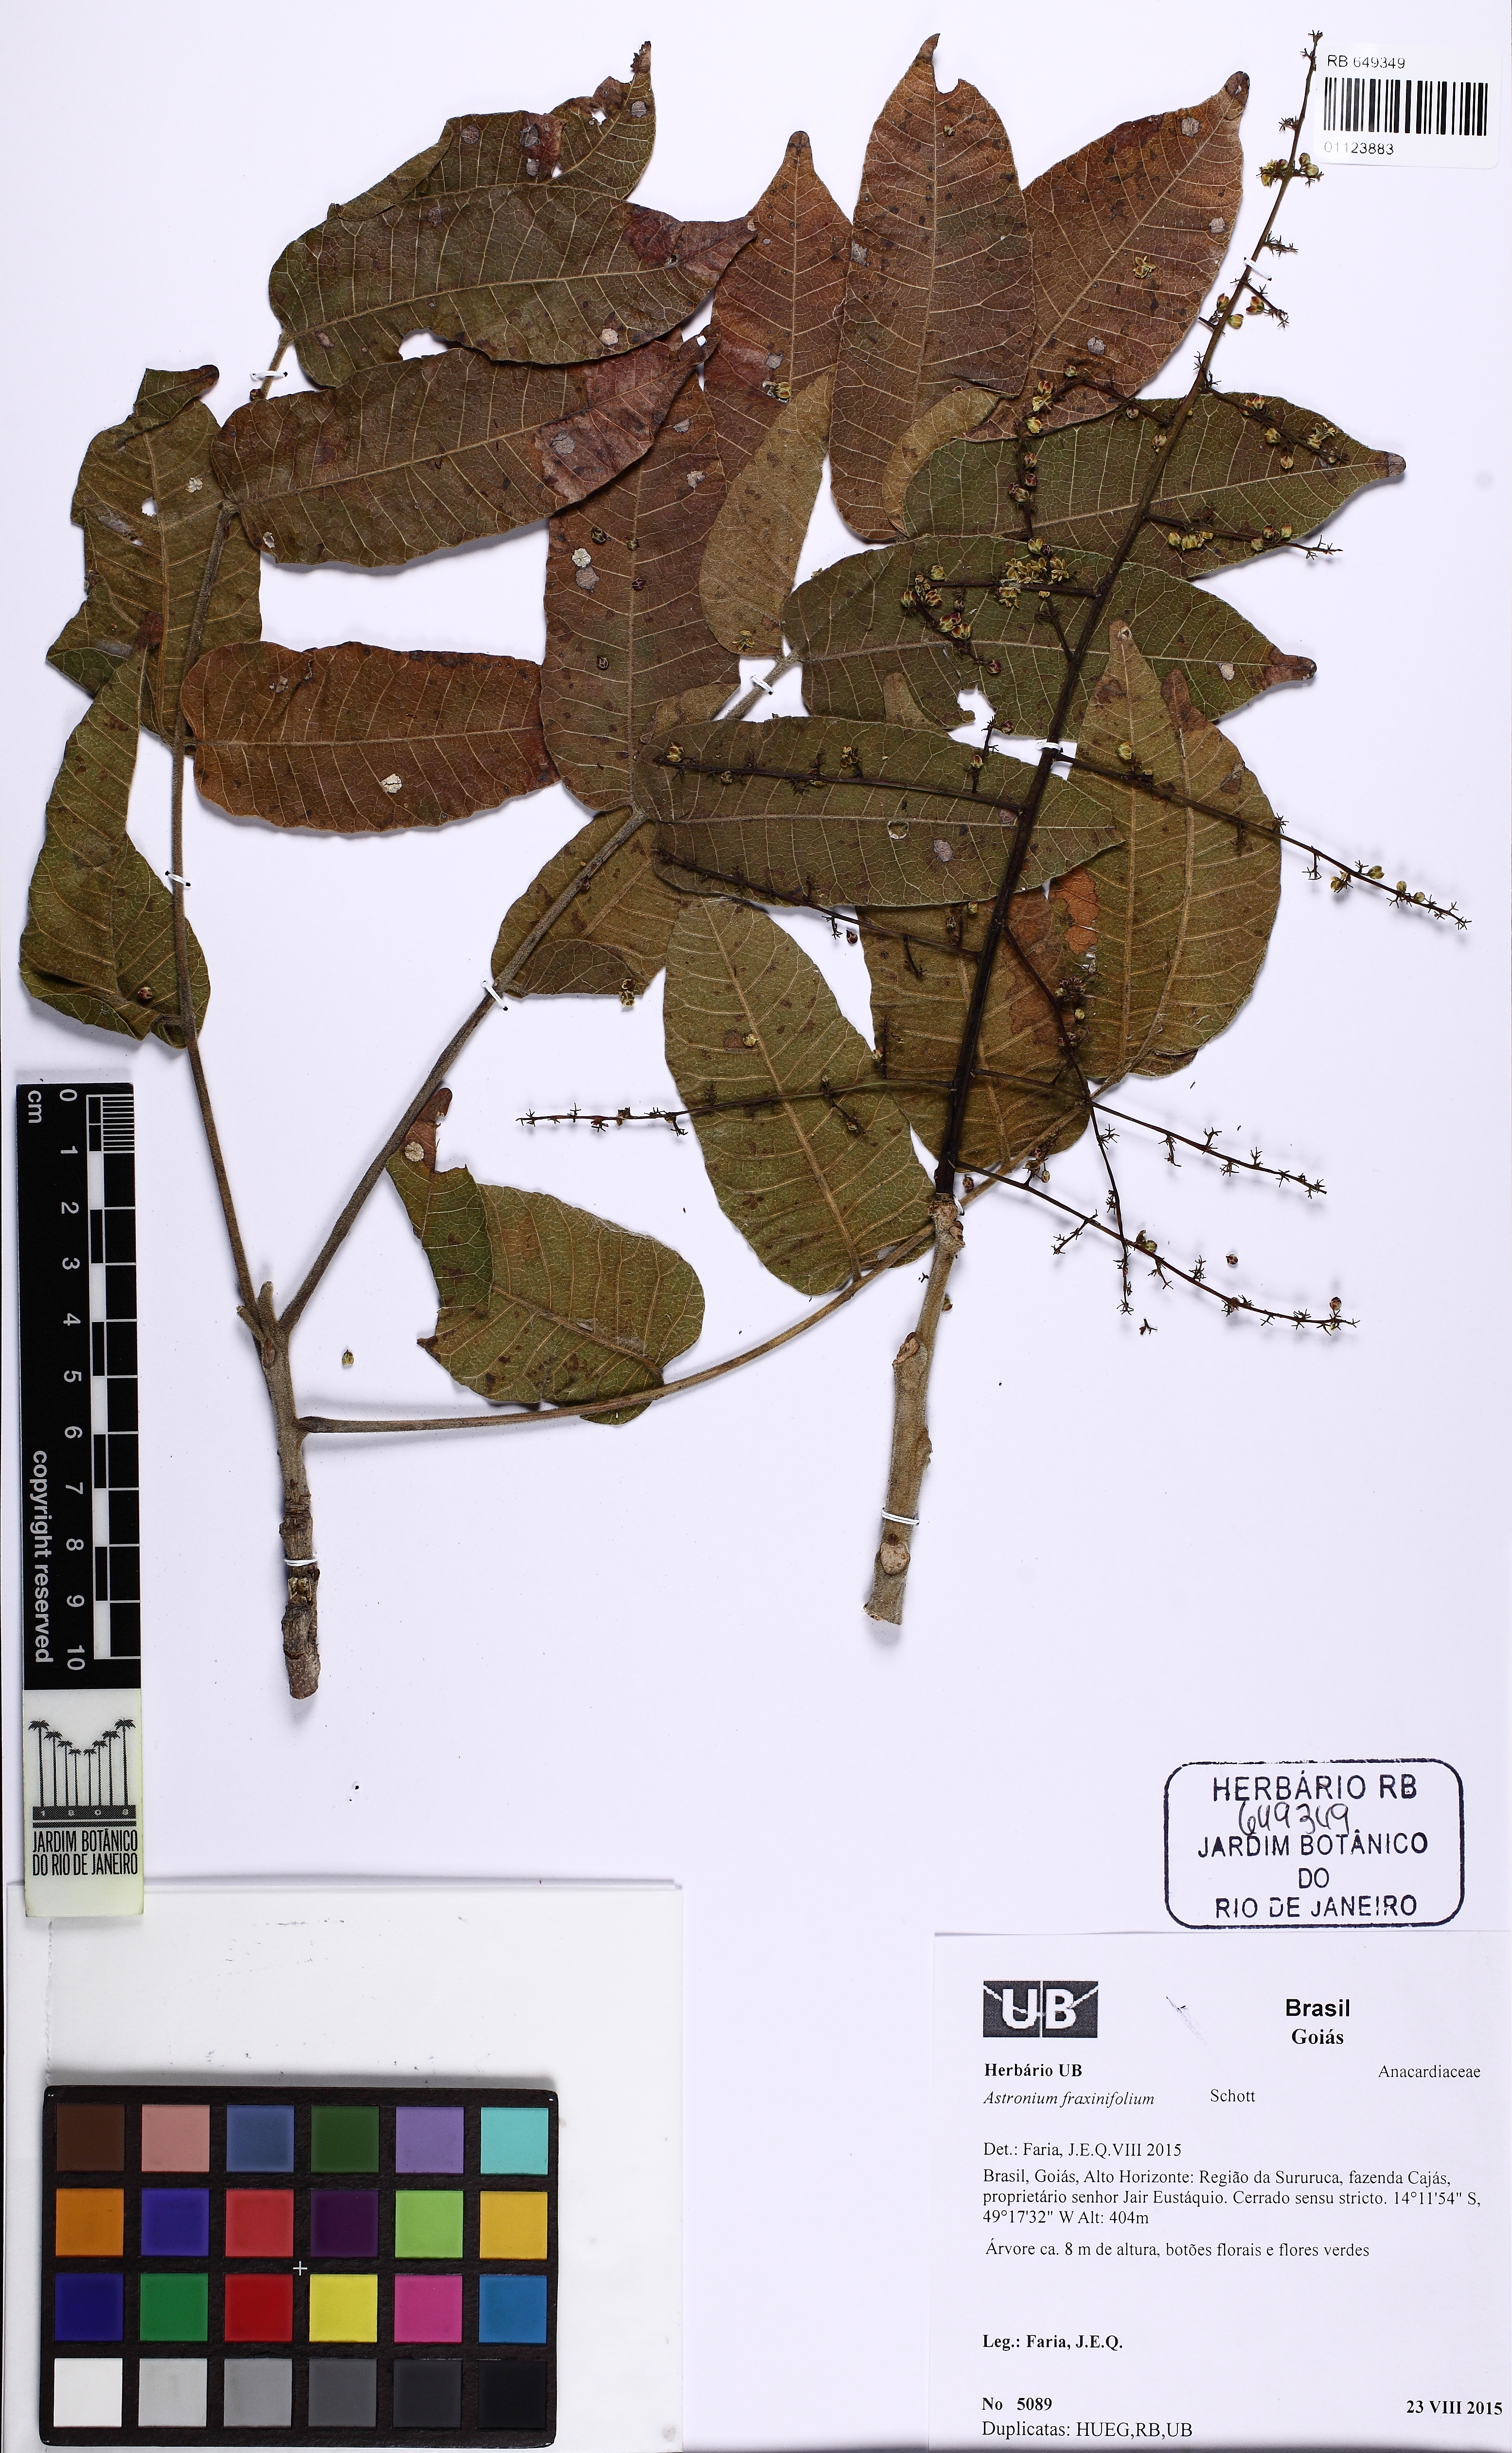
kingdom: Plantae
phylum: Tracheophyta
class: Magnoliopsida
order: Sapindales
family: Anacardiaceae
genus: Astronium
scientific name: Astronium fraxinifolium
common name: Tigerwood
